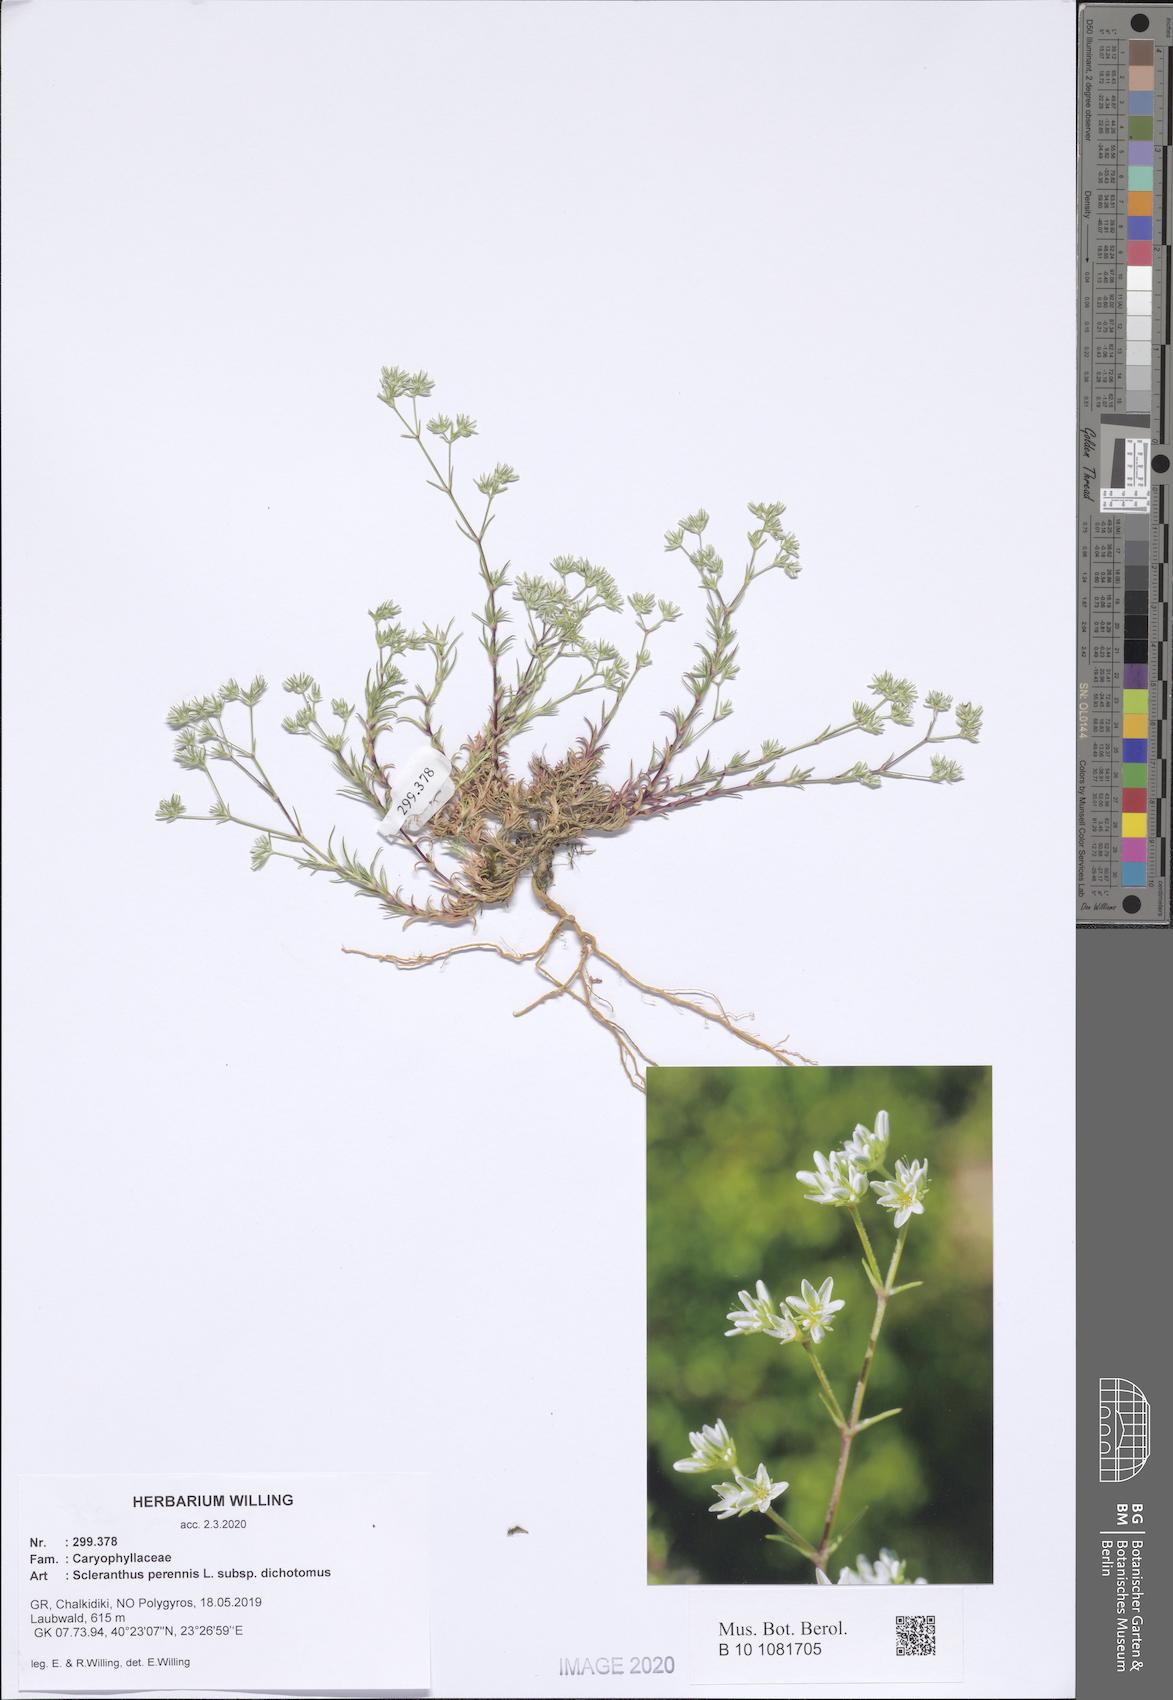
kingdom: Plantae
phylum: Tracheophyta
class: Magnoliopsida
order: Caryophyllales
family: Caryophyllaceae
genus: Scleranthus
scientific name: Scleranthus perennis
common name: Perennial knawel
